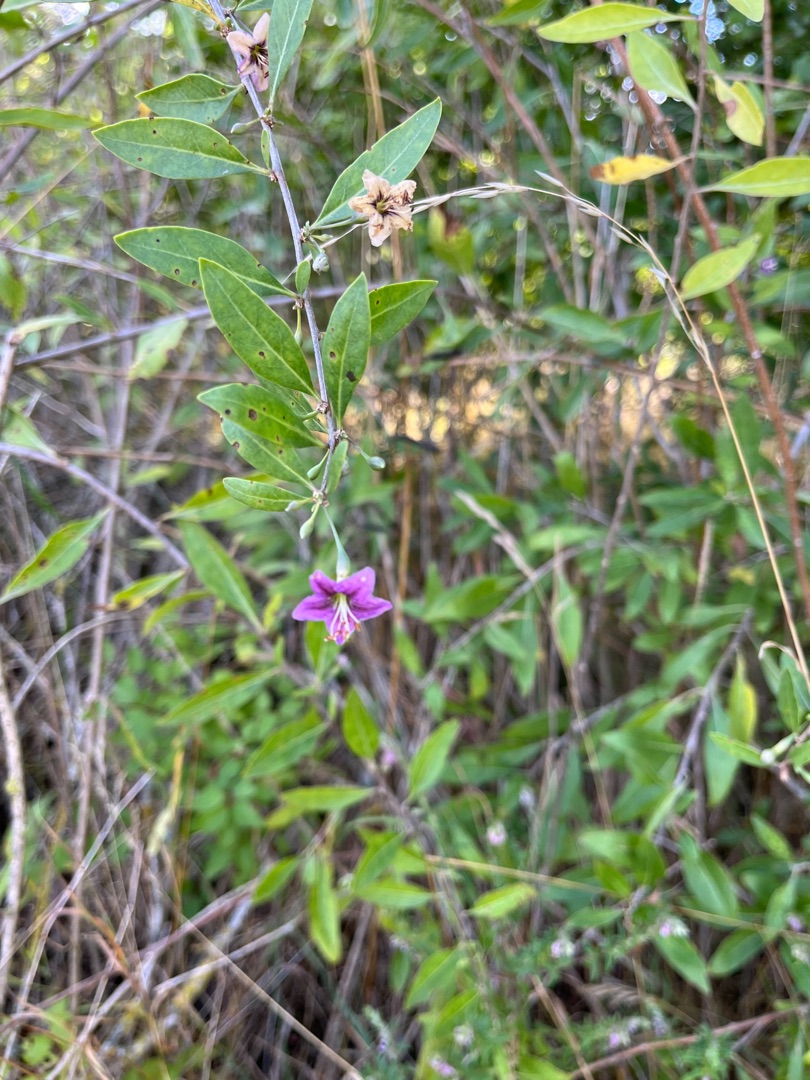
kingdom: Plantae
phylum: Tracheophyta
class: Magnoliopsida
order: Solanales
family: Solanaceae
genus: Lycium
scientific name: Lycium barbarum
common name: Bukketorn
